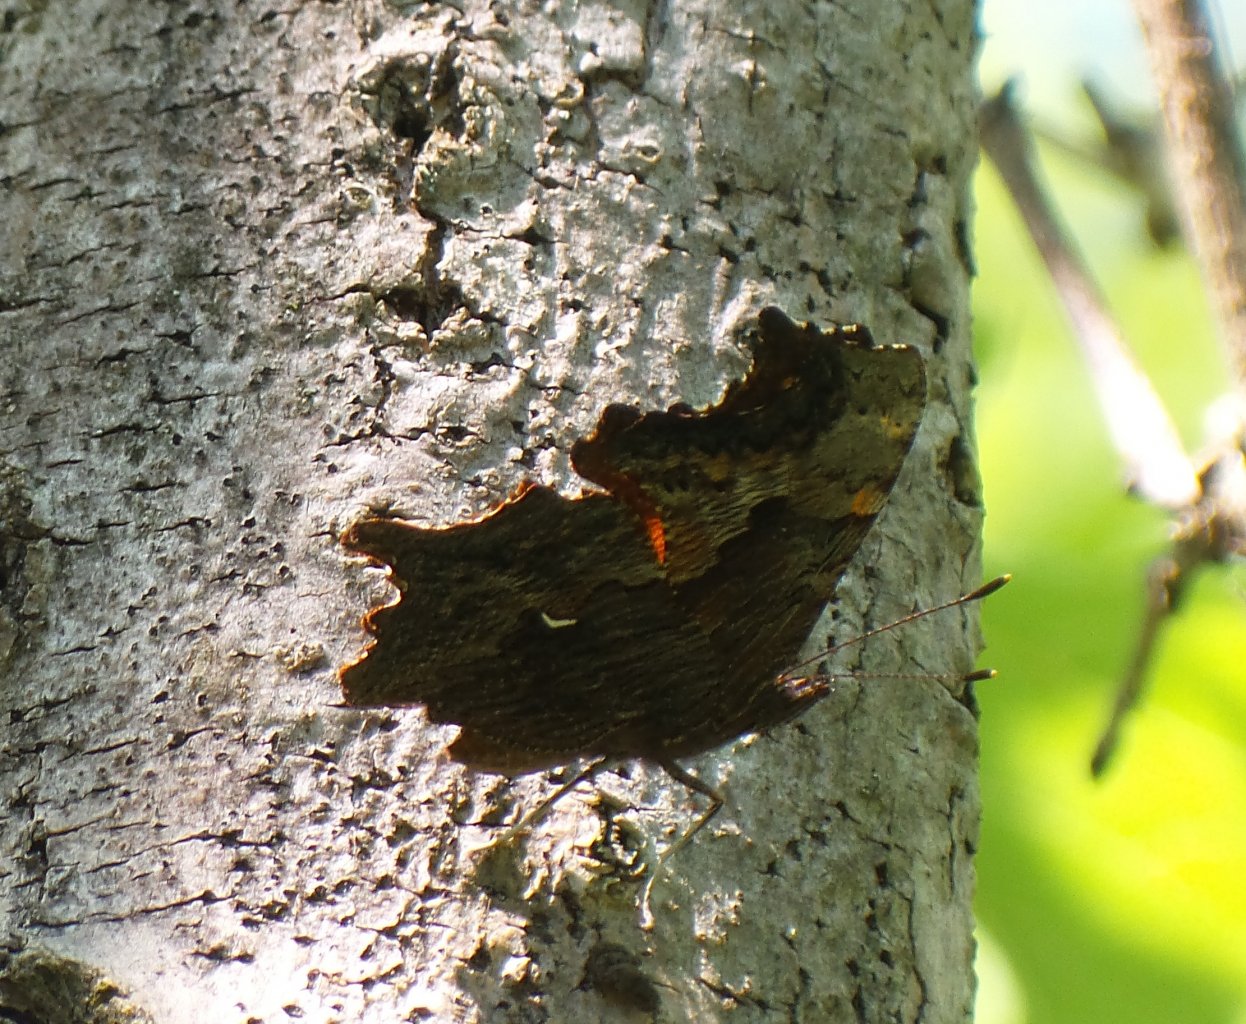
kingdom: Animalia
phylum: Arthropoda
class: Insecta
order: Lepidoptera
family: Nymphalidae
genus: Polygonia
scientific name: Polygonia progne
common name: Gray Comma
